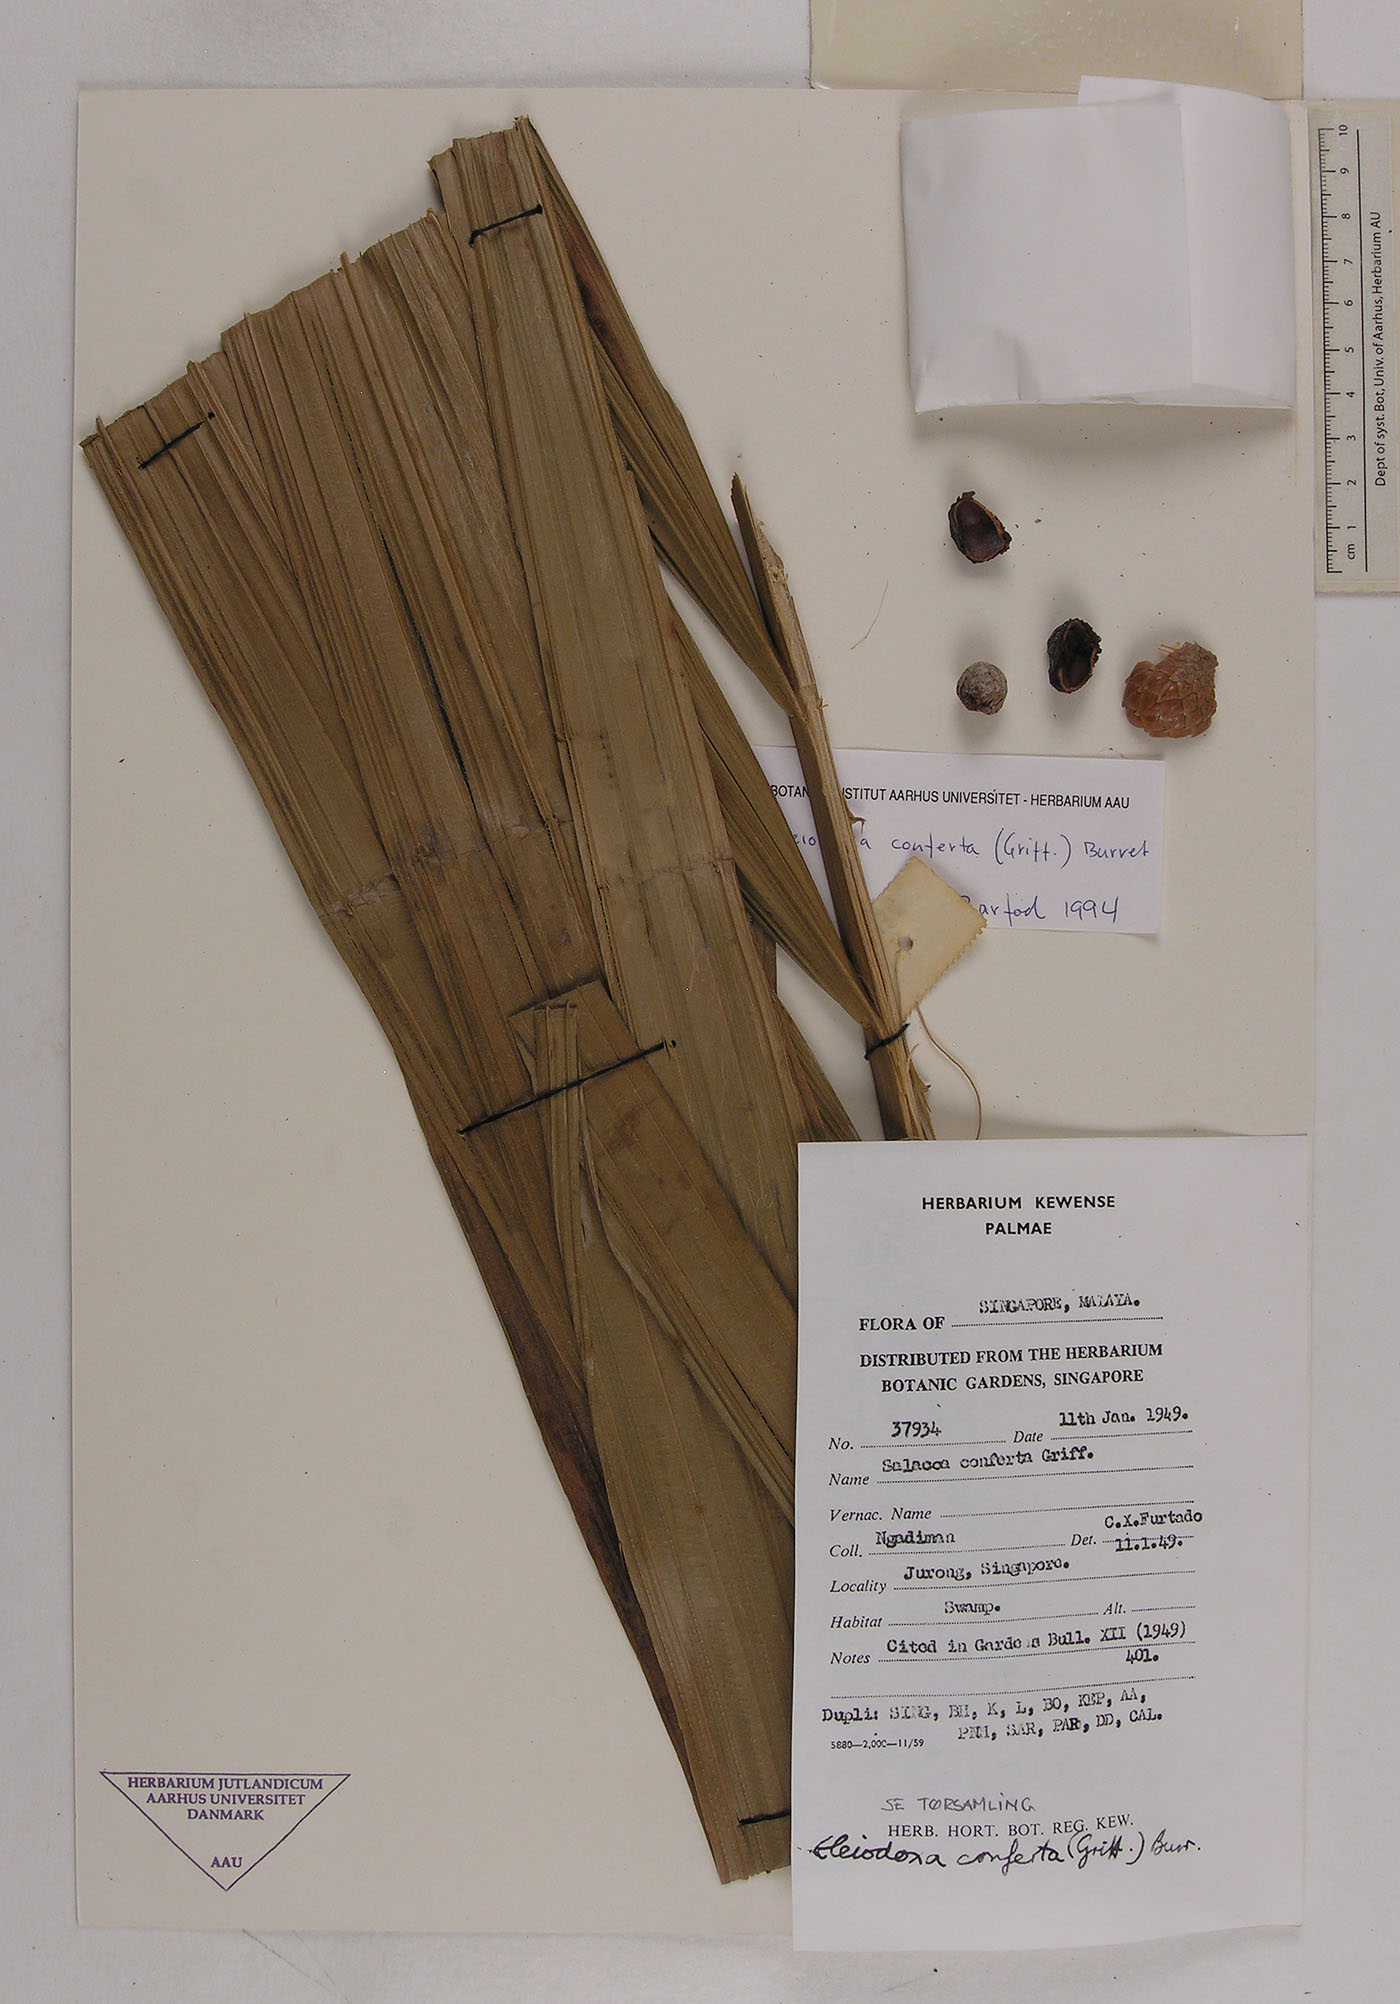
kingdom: Plantae
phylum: Tracheophyta
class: Liliopsida
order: Arecales
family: Arecaceae
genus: Eleiodoxa
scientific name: Eleiodoxa conferta
